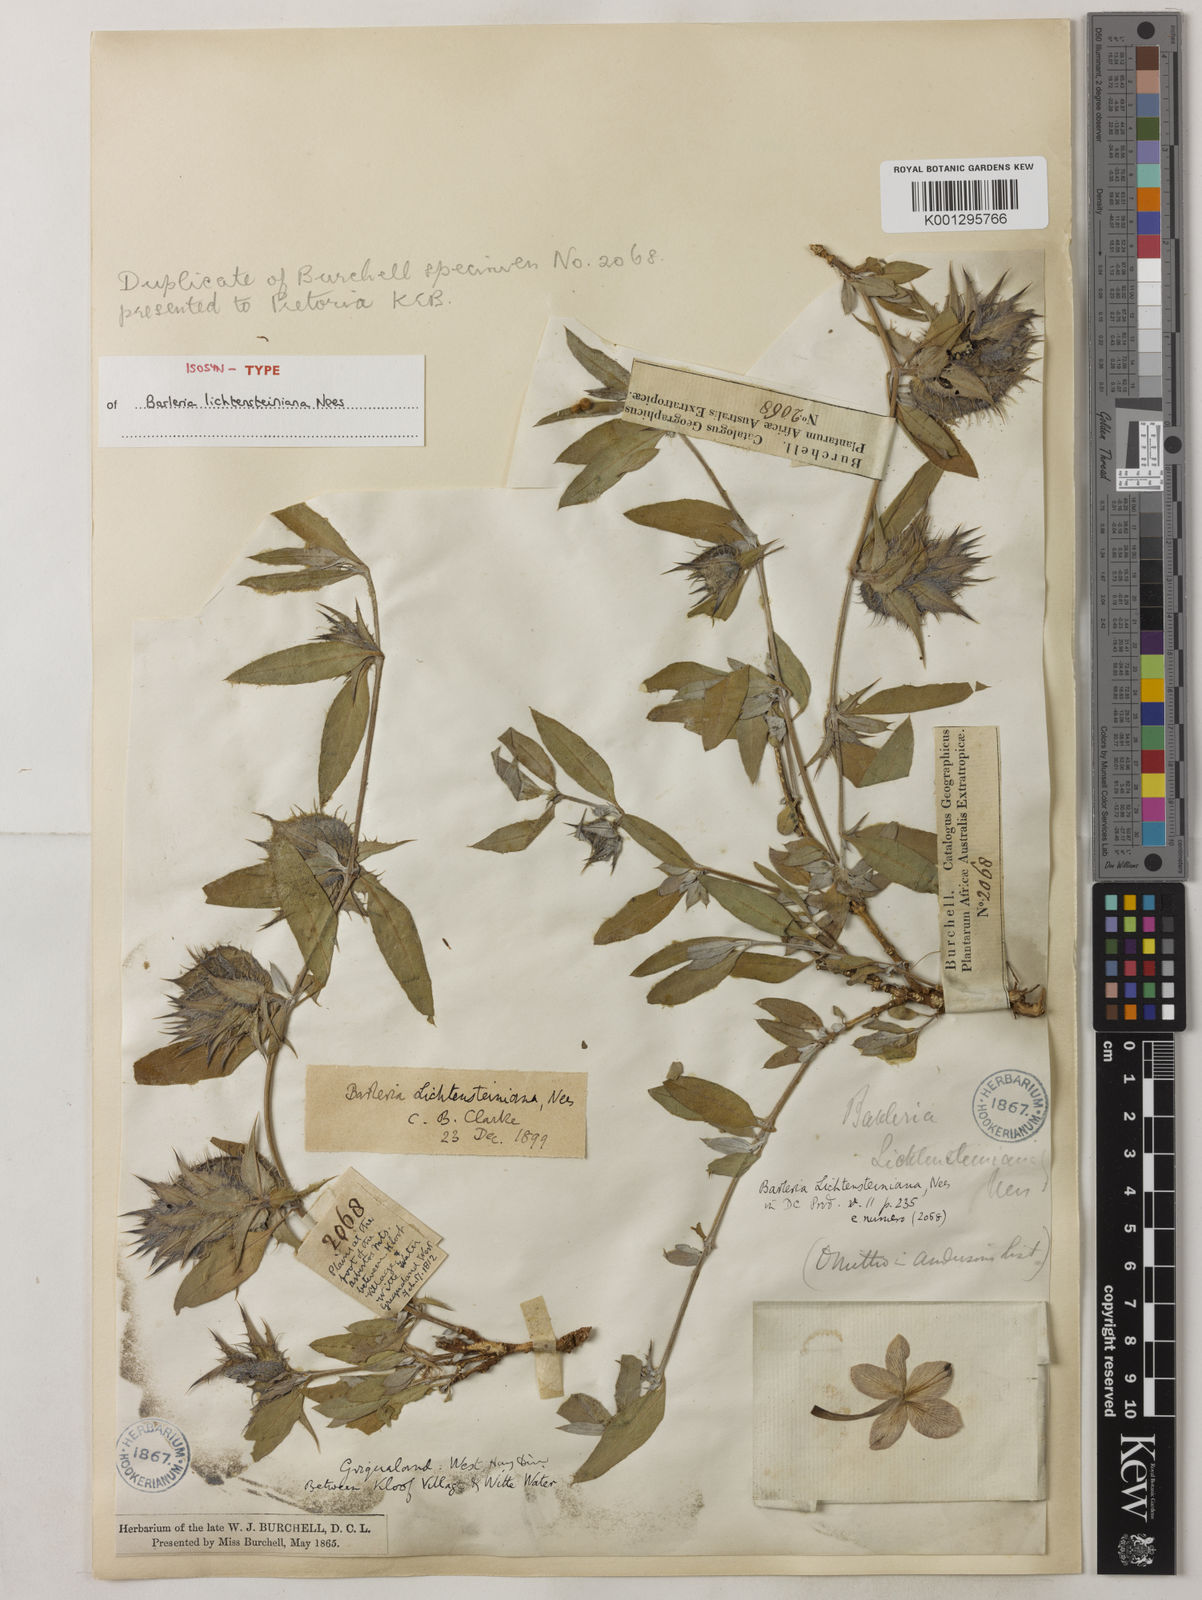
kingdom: Plantae
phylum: Tracheophyta
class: Magnoliopsida
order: Lamiales
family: Acanthaceae
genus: Barleria
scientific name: Barleria lichtensteiniana
